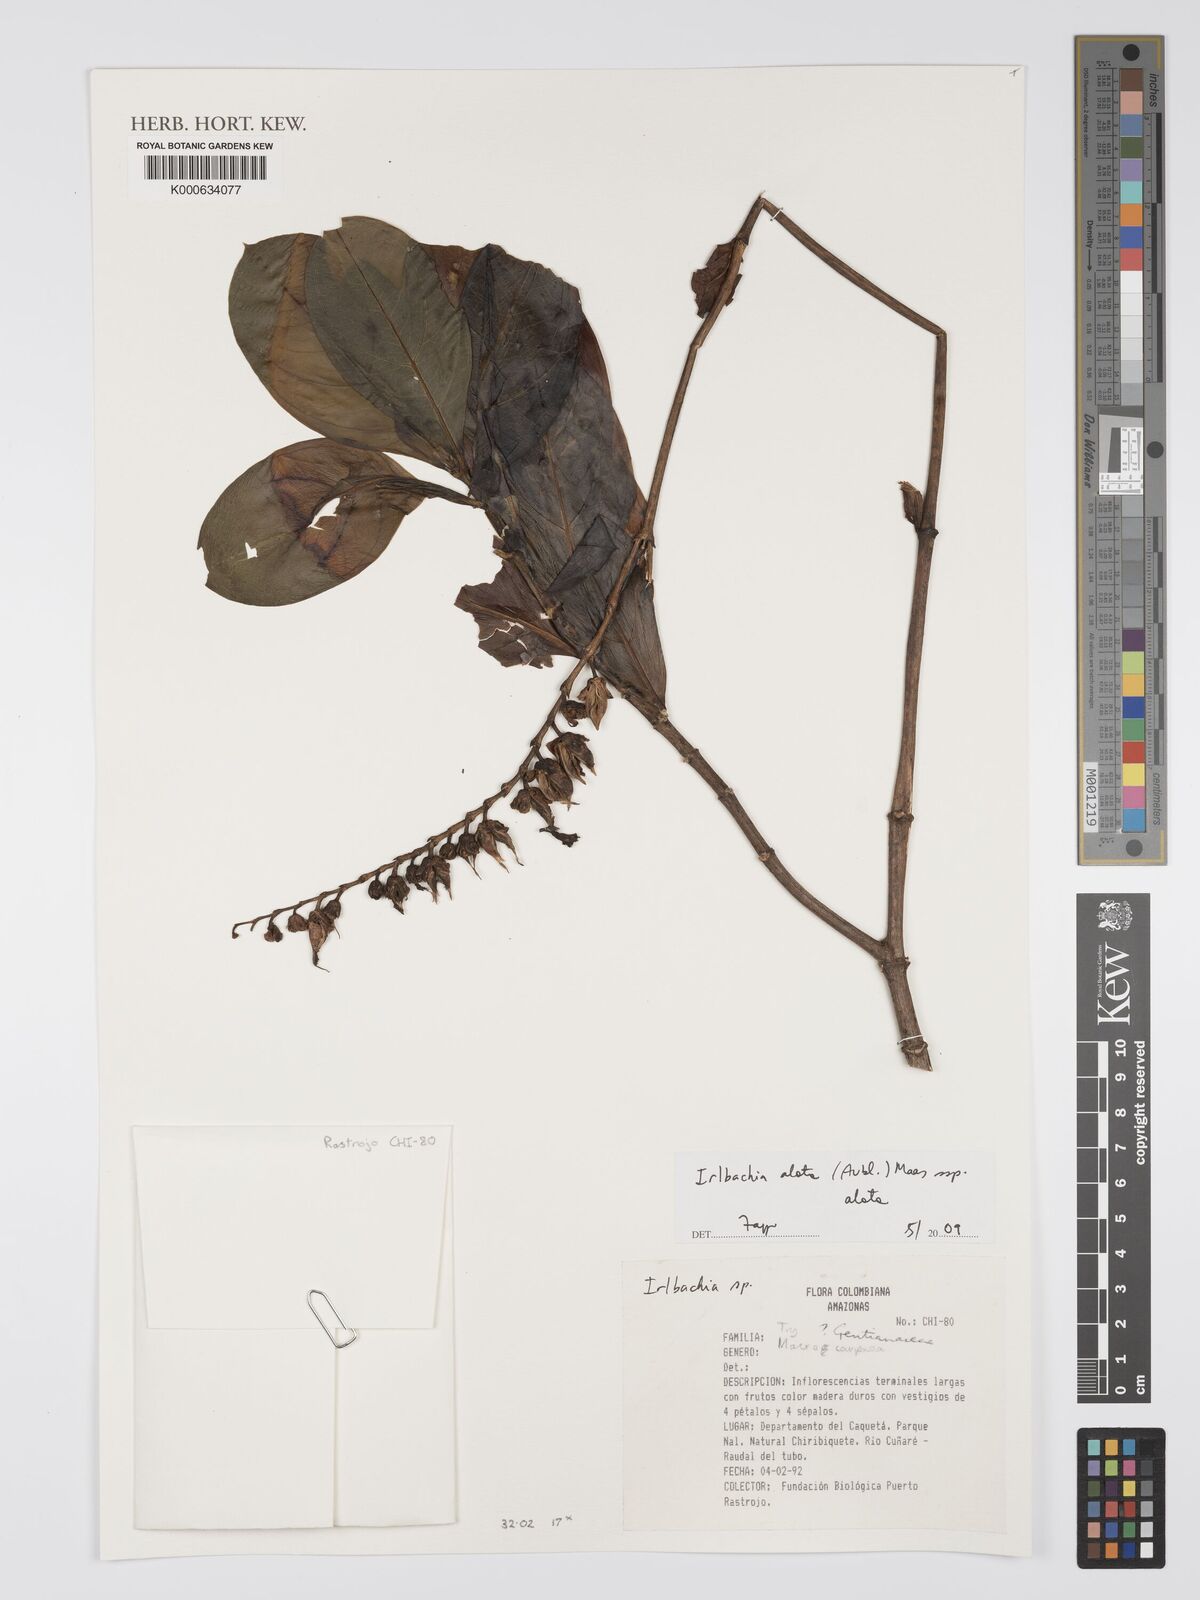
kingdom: Plantae
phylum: Tracheophyta
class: Magnoliopsida
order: Gentianales
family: Gentianaceae
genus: Chelonanthus
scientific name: Chelonanthus alatus
